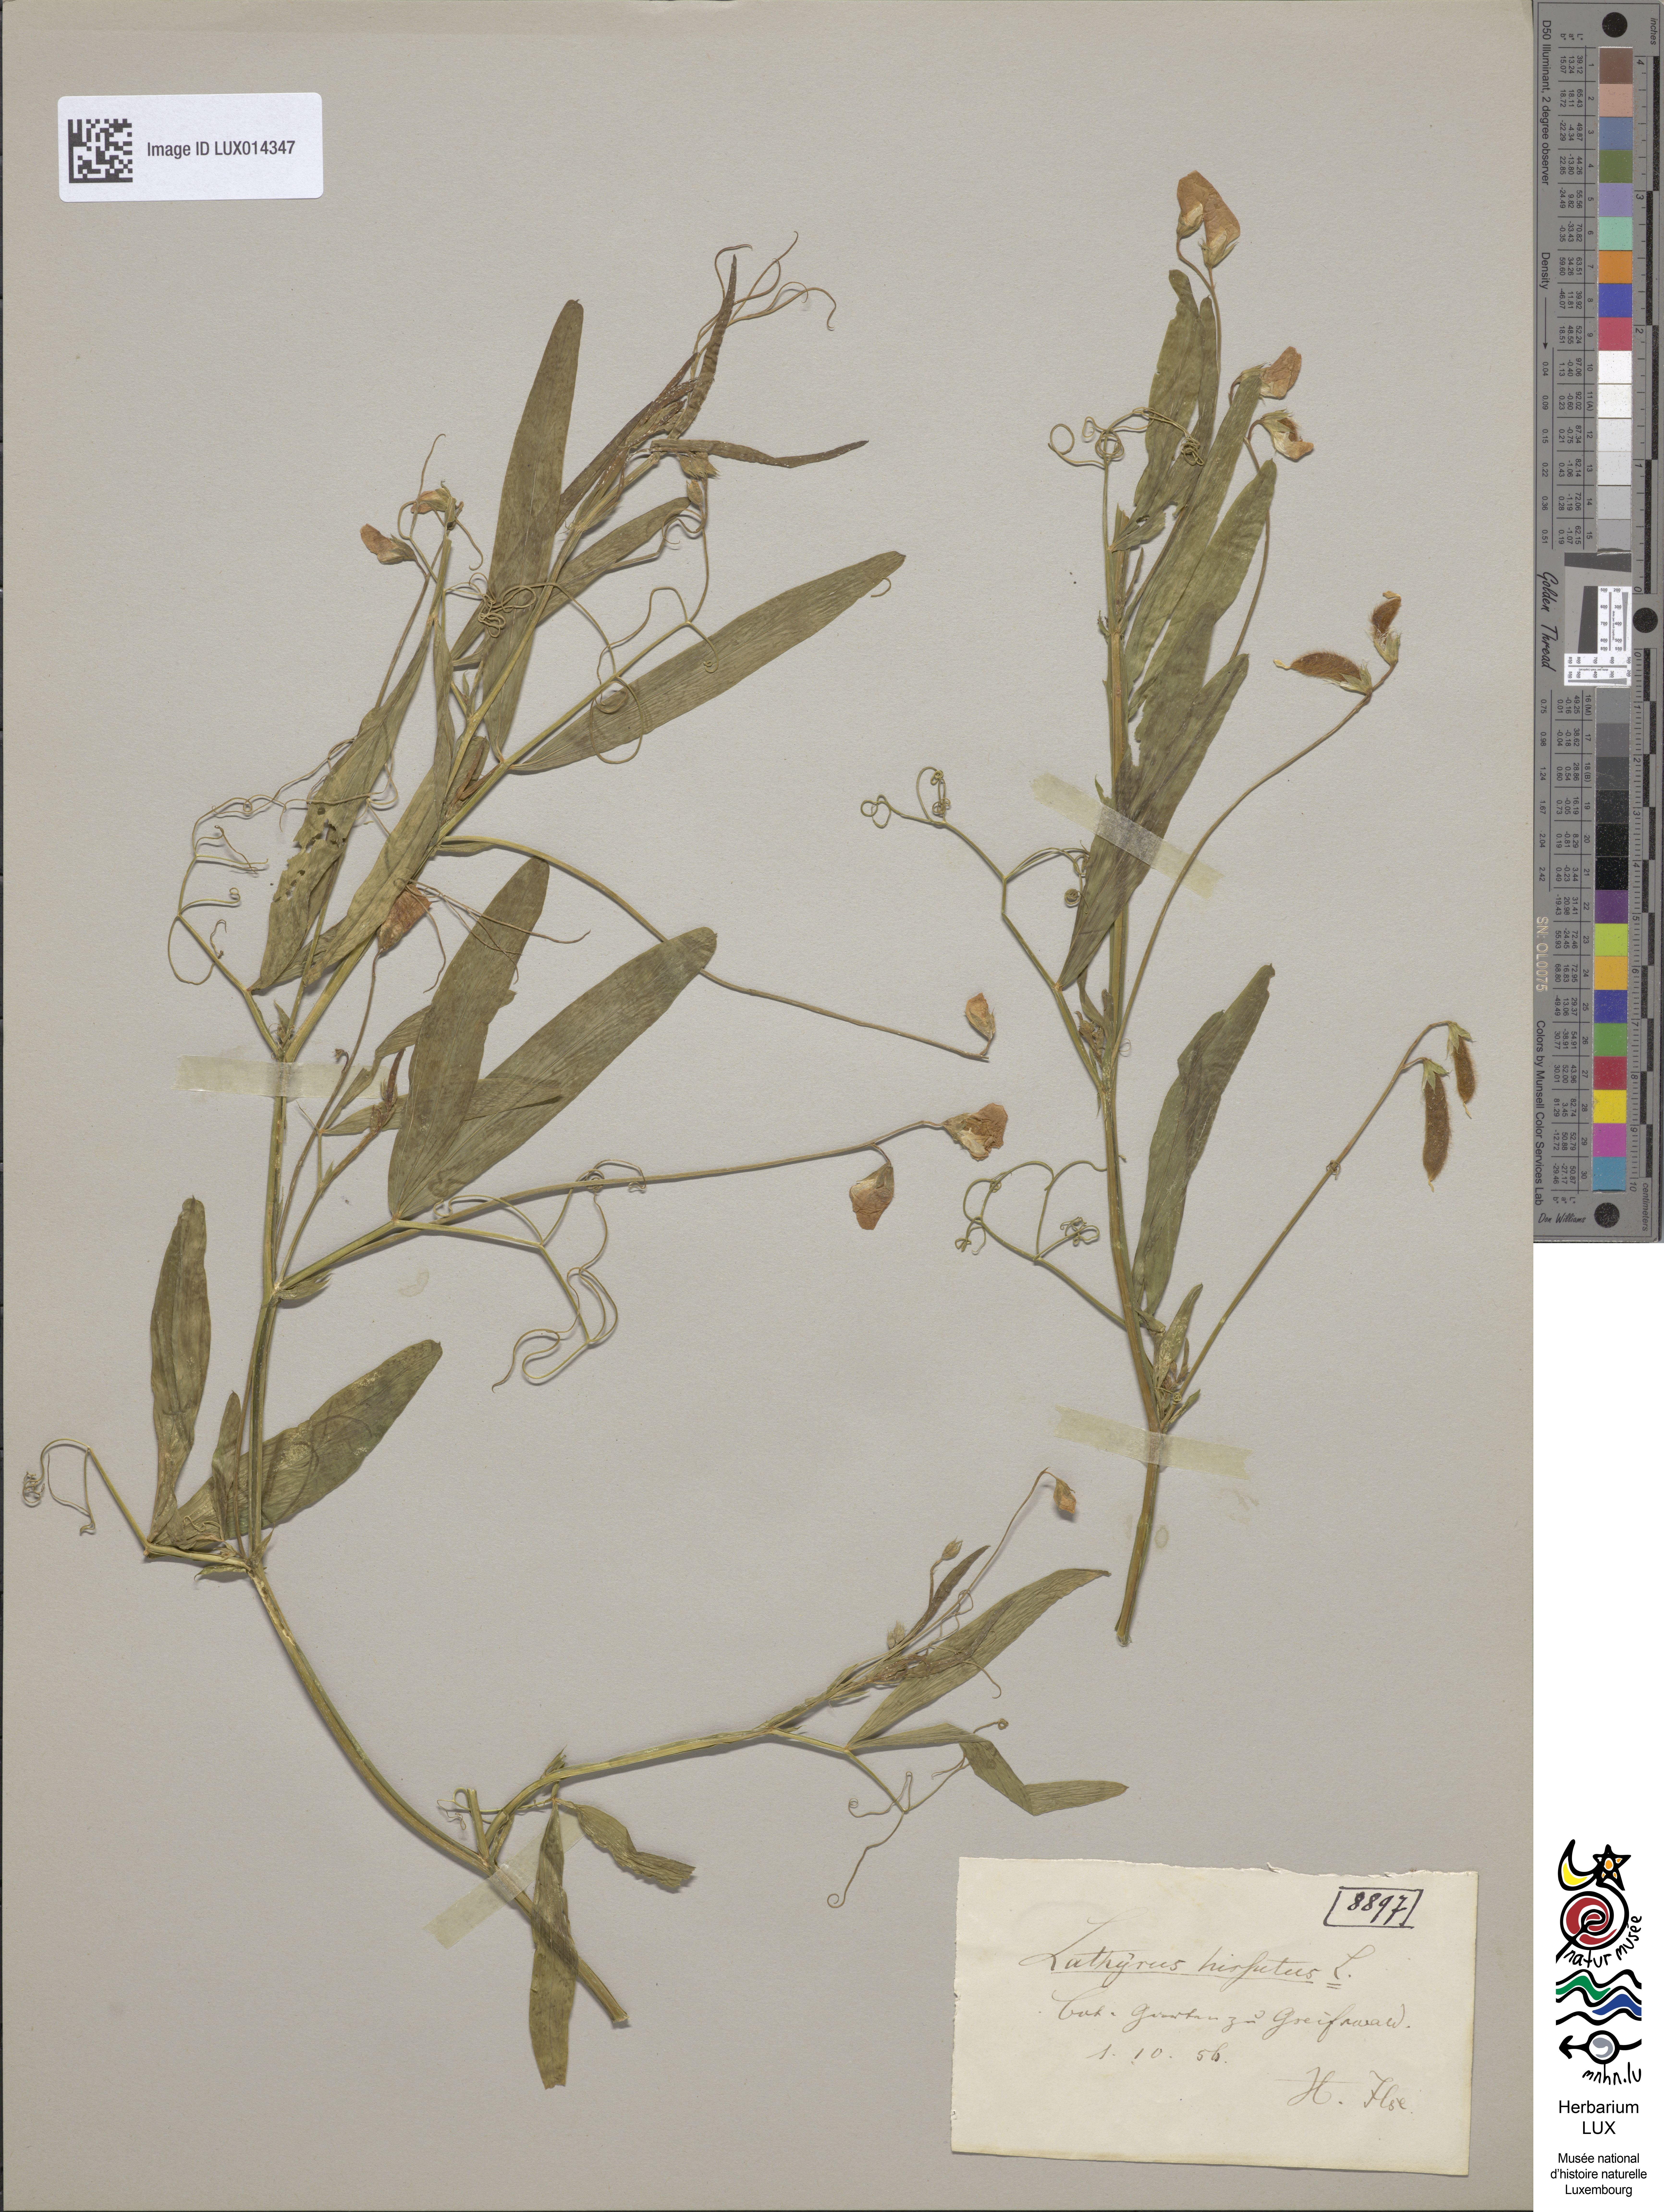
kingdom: Plantae
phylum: Tracheophyta
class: Magnoliopsida
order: Fabales
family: Fabaceae
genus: Lathyrus
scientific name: Lathyrus hirsutus
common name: Hairy vetchling
